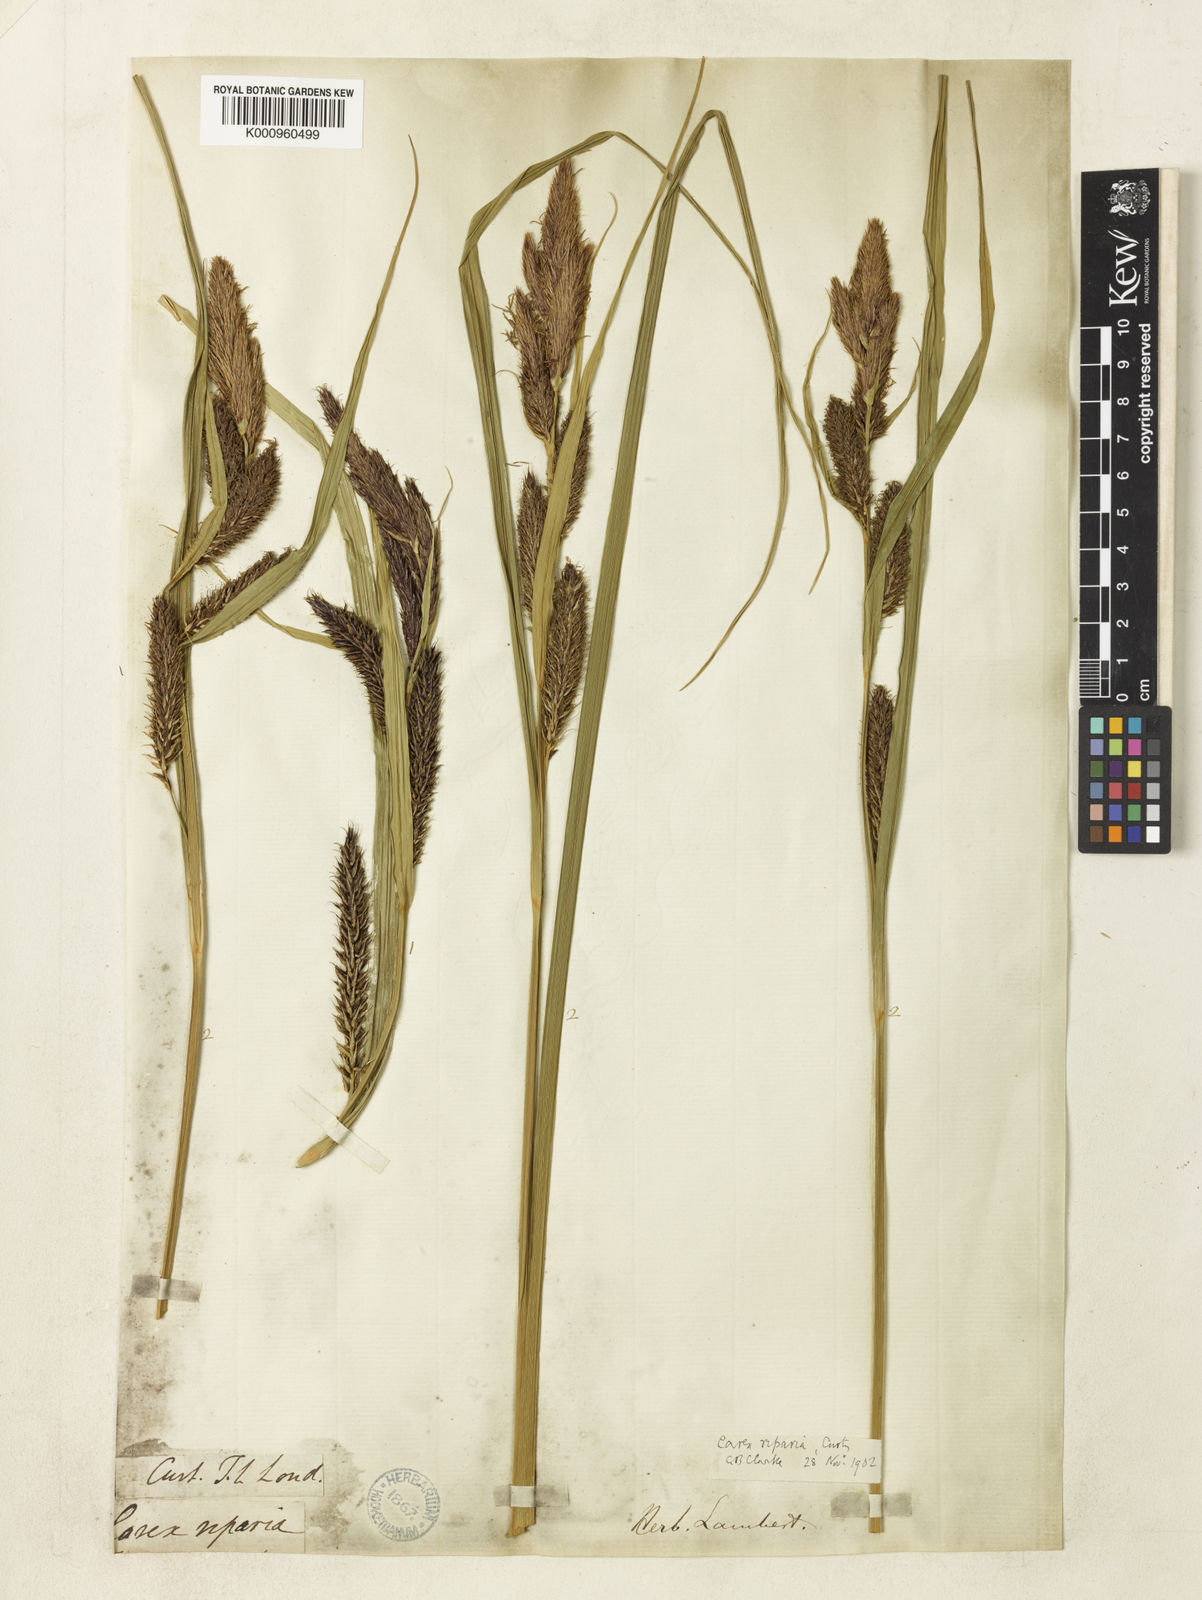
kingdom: Plantae
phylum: Tracheophyta
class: Liliopsida
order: Poales
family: Cyperaceae
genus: Carex
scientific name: Carex riparia
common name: Greater pond-sedge
